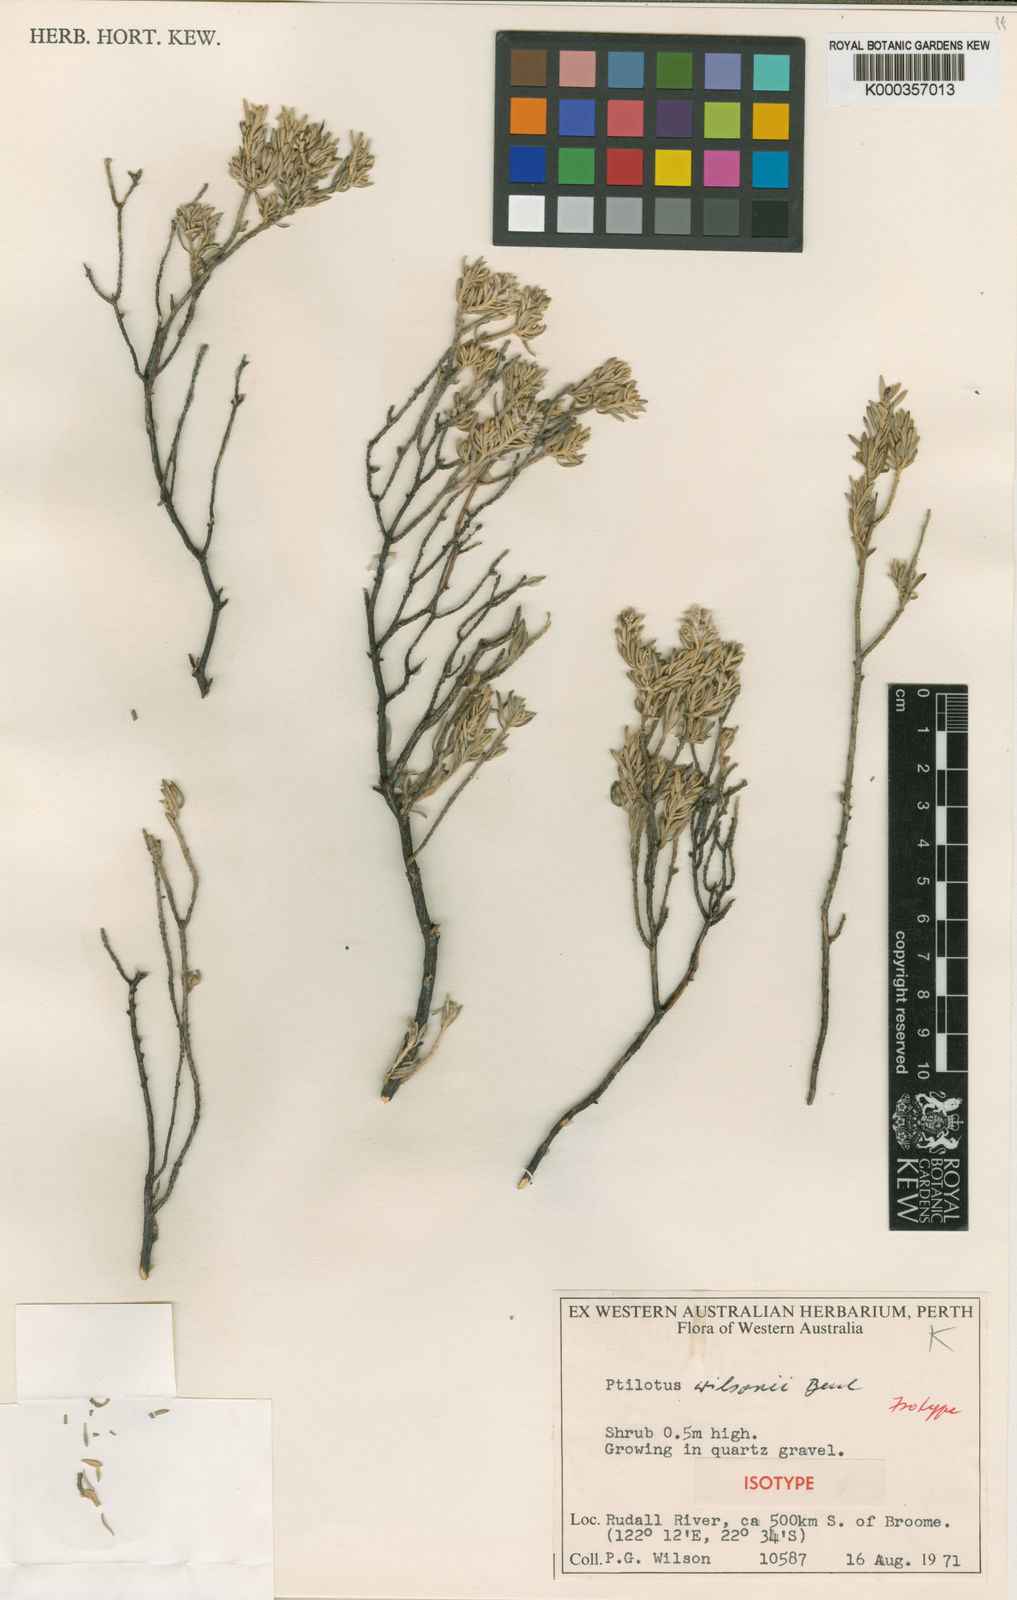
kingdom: Plantae
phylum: Tracheophyta
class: Magnoliopsida
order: Caryophyllales
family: Amaranthaceae
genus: Ptilotus
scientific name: Ptilotus wilsonii
